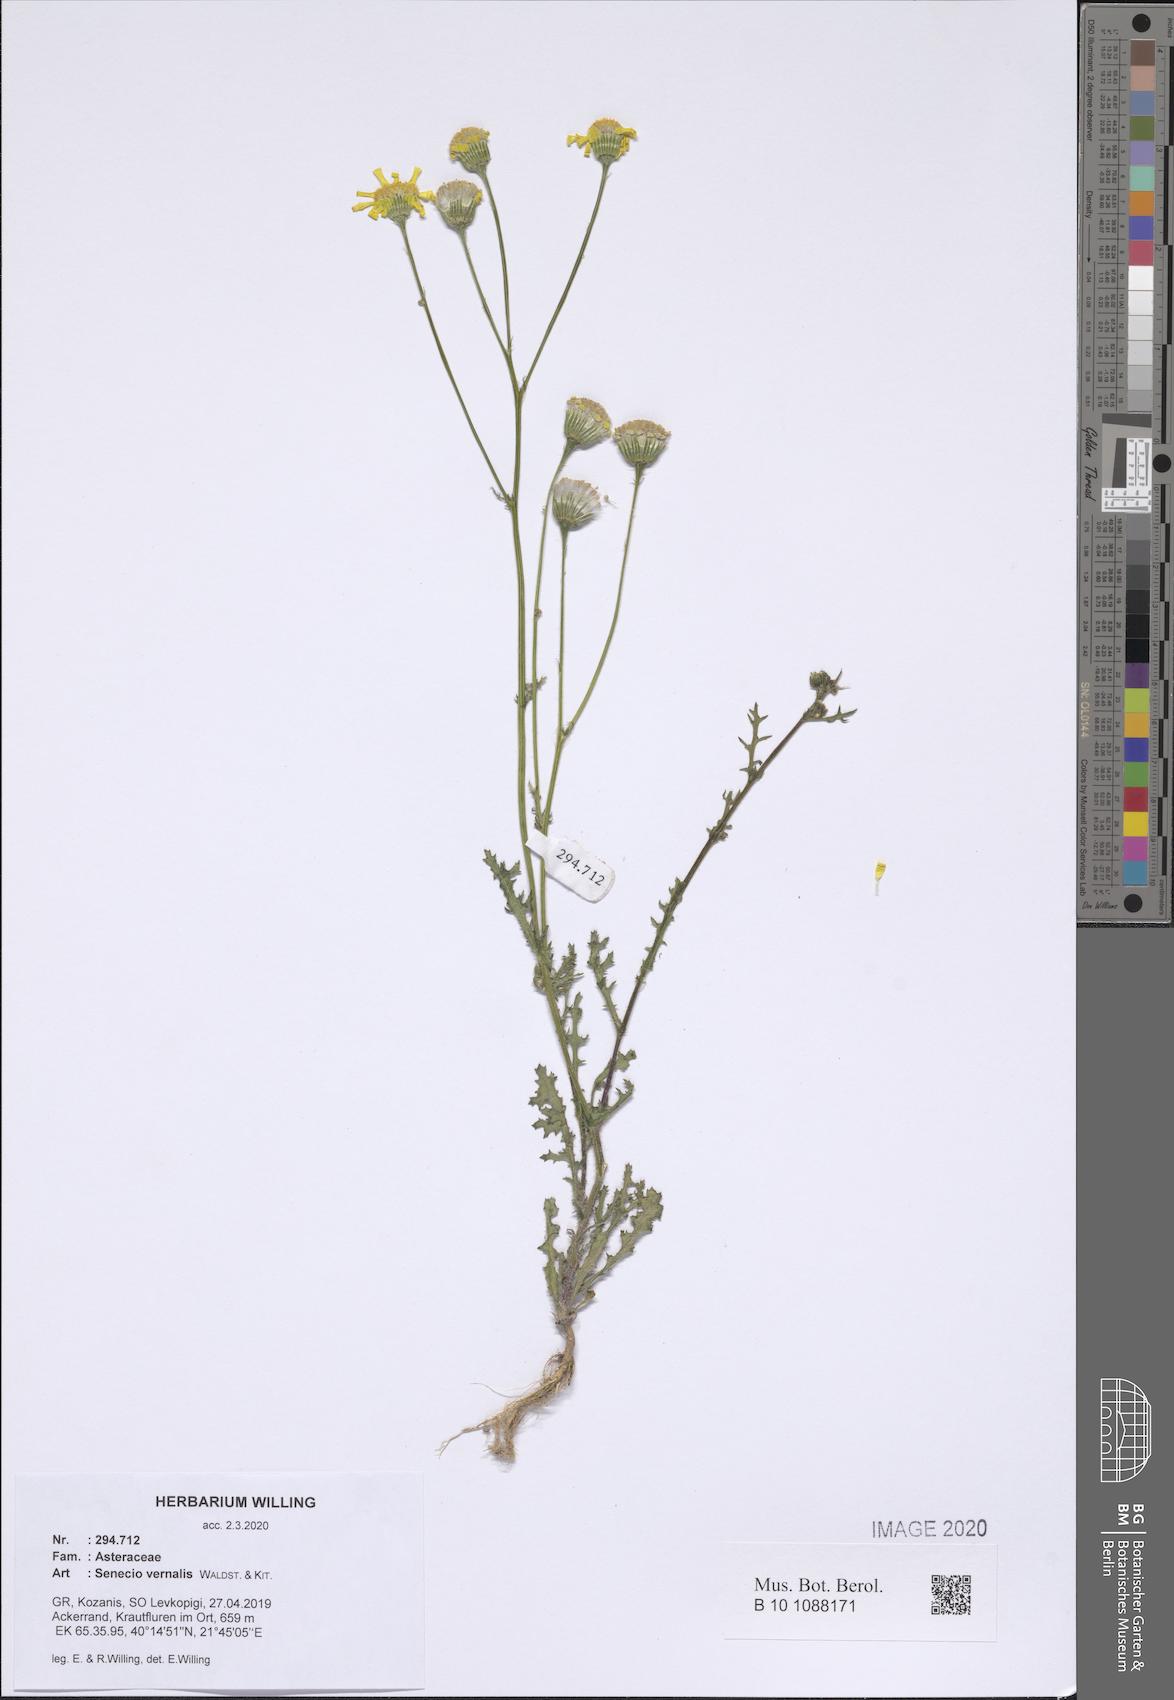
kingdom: Plantae
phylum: Tracheophyta
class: Magnoliopsida
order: Asterales
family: Asteraceae
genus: Senecio
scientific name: Senecio vernalis
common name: Eastern groundsel
